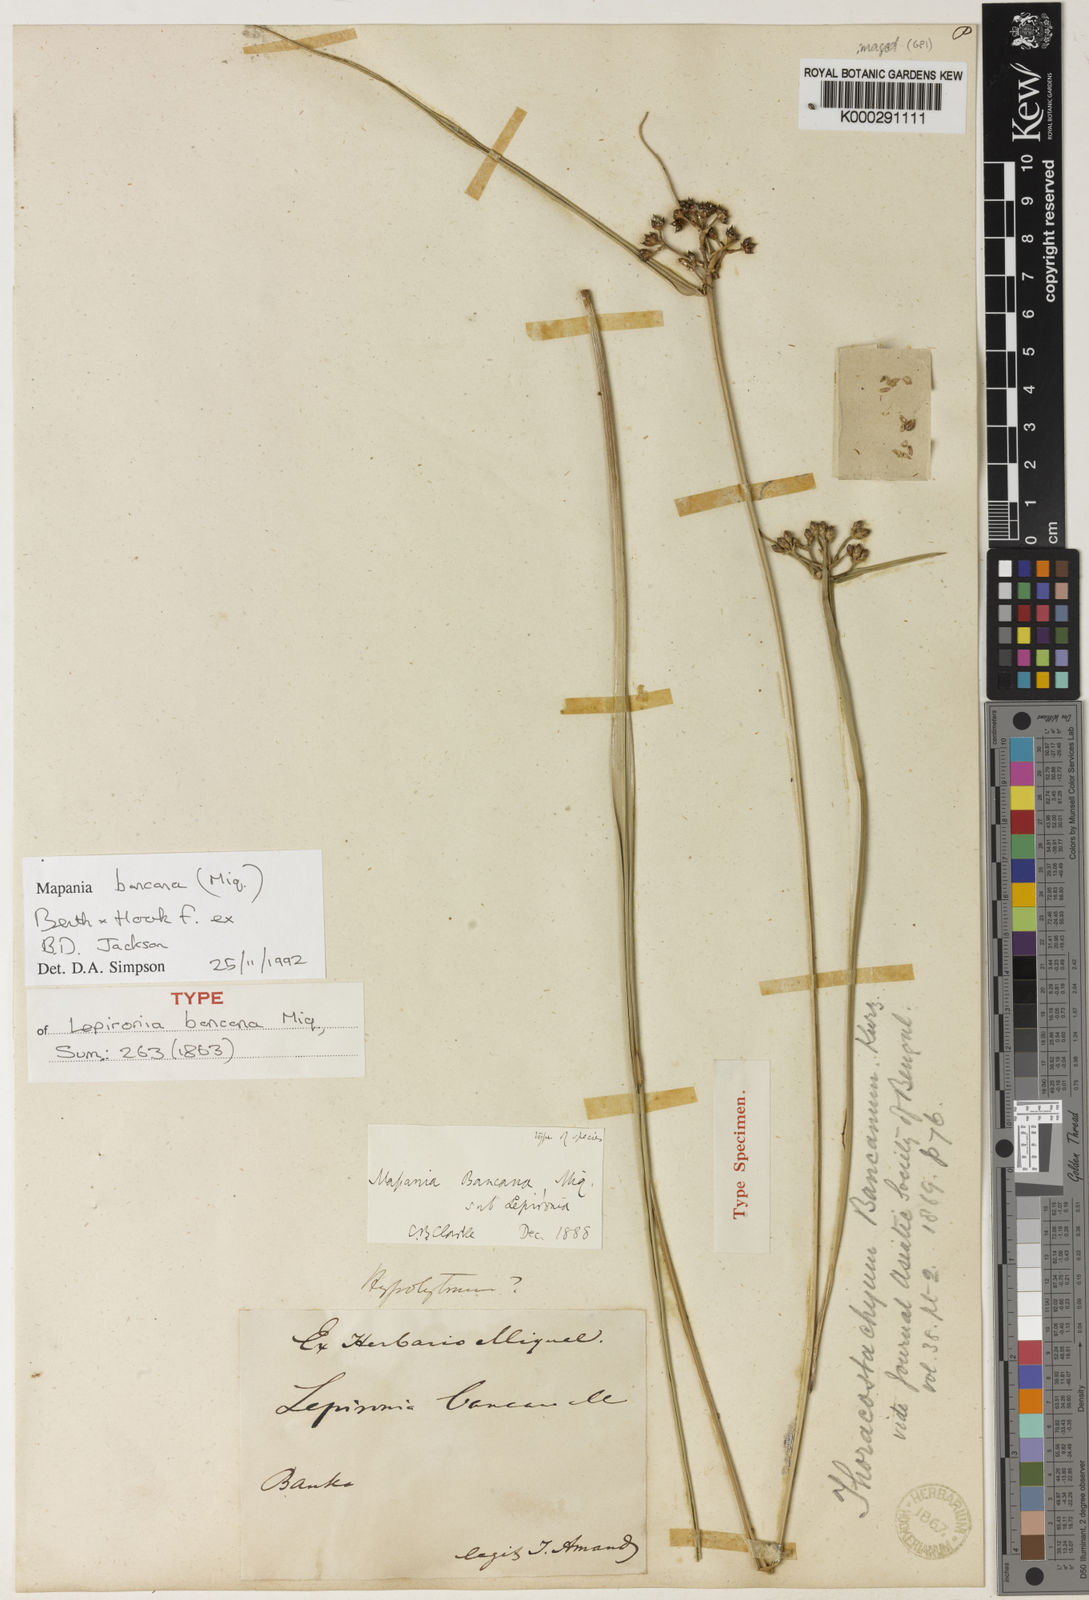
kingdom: Plantae
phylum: Tracheophyta
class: Liliopsida
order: Poales
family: Cyperaceae
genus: Mapania
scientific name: Mapania
